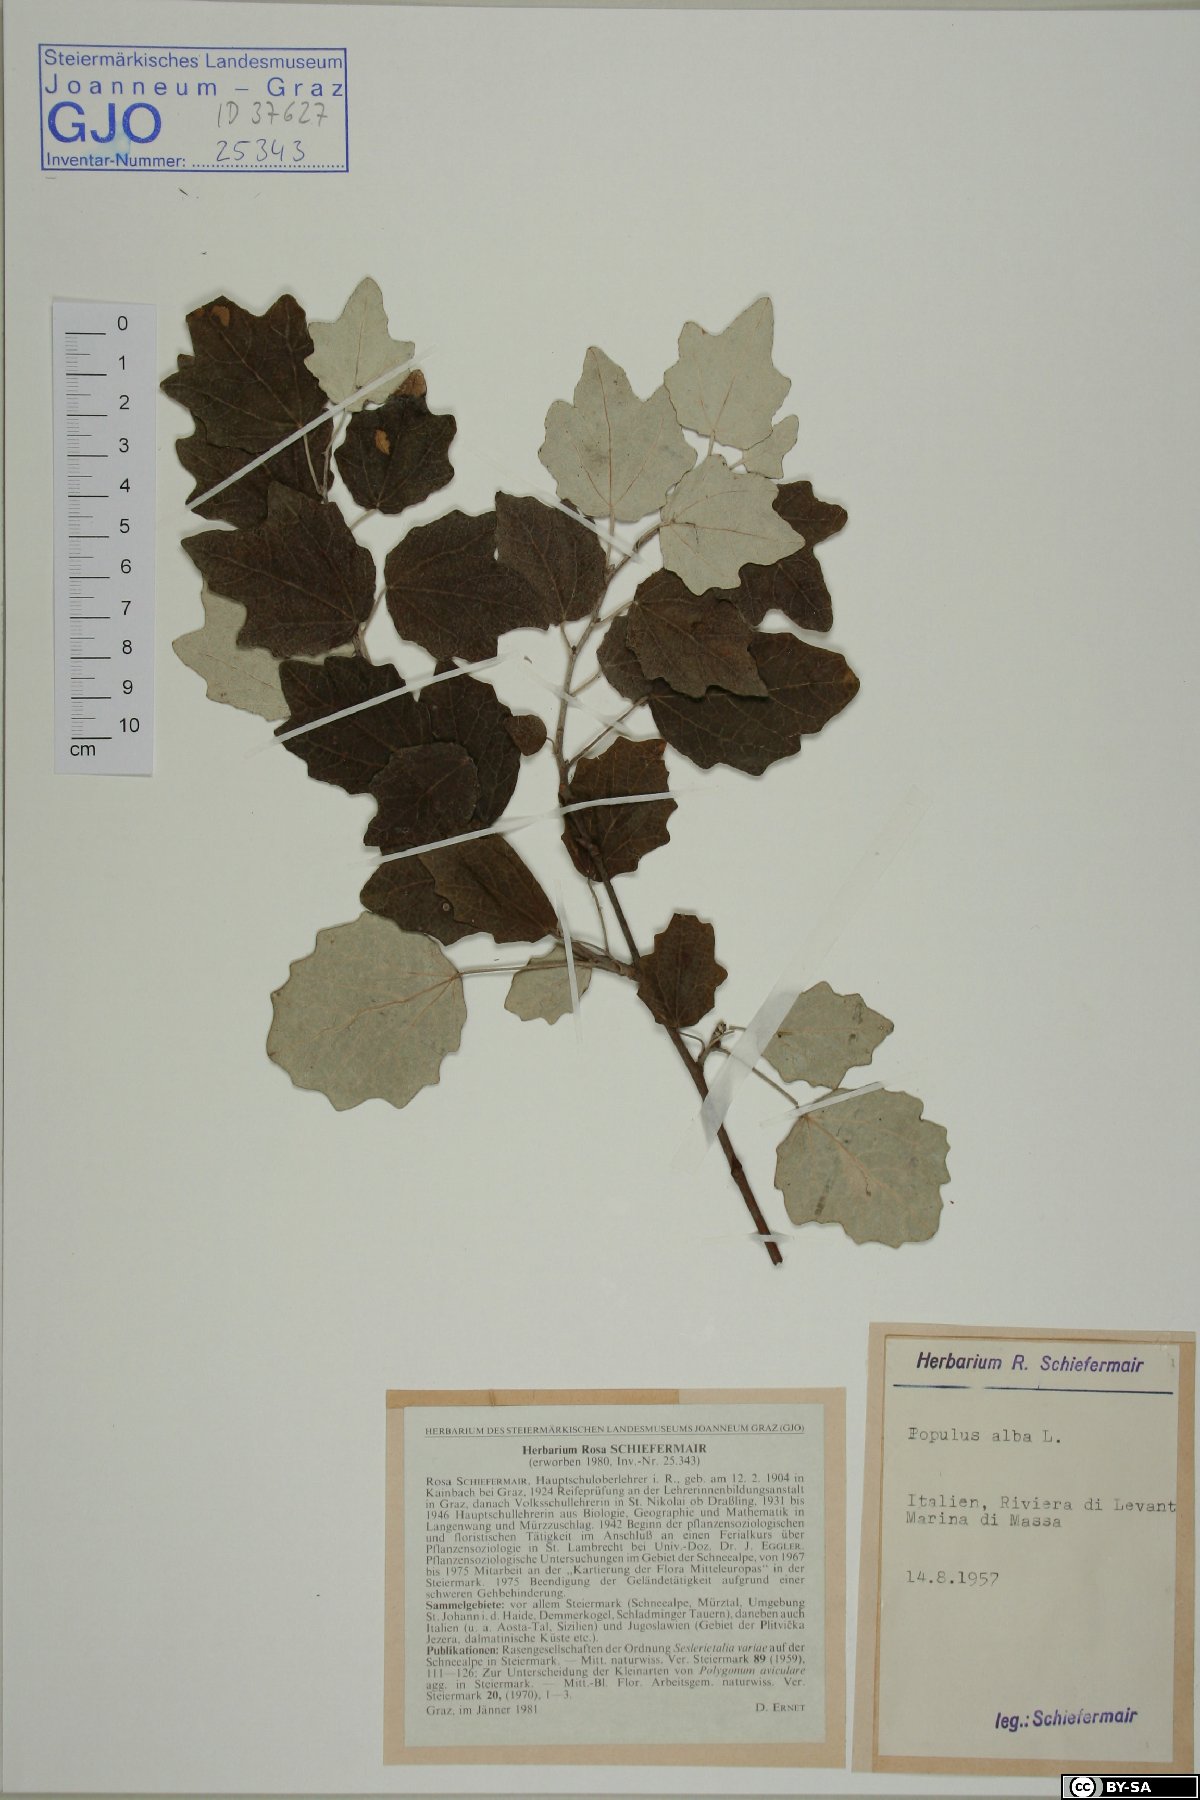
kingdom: Plantae
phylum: Tracheophyta
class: Magnoliopsida
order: Malpighiales
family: Salicaceae
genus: Populus
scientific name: Populus alba
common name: White poplar
